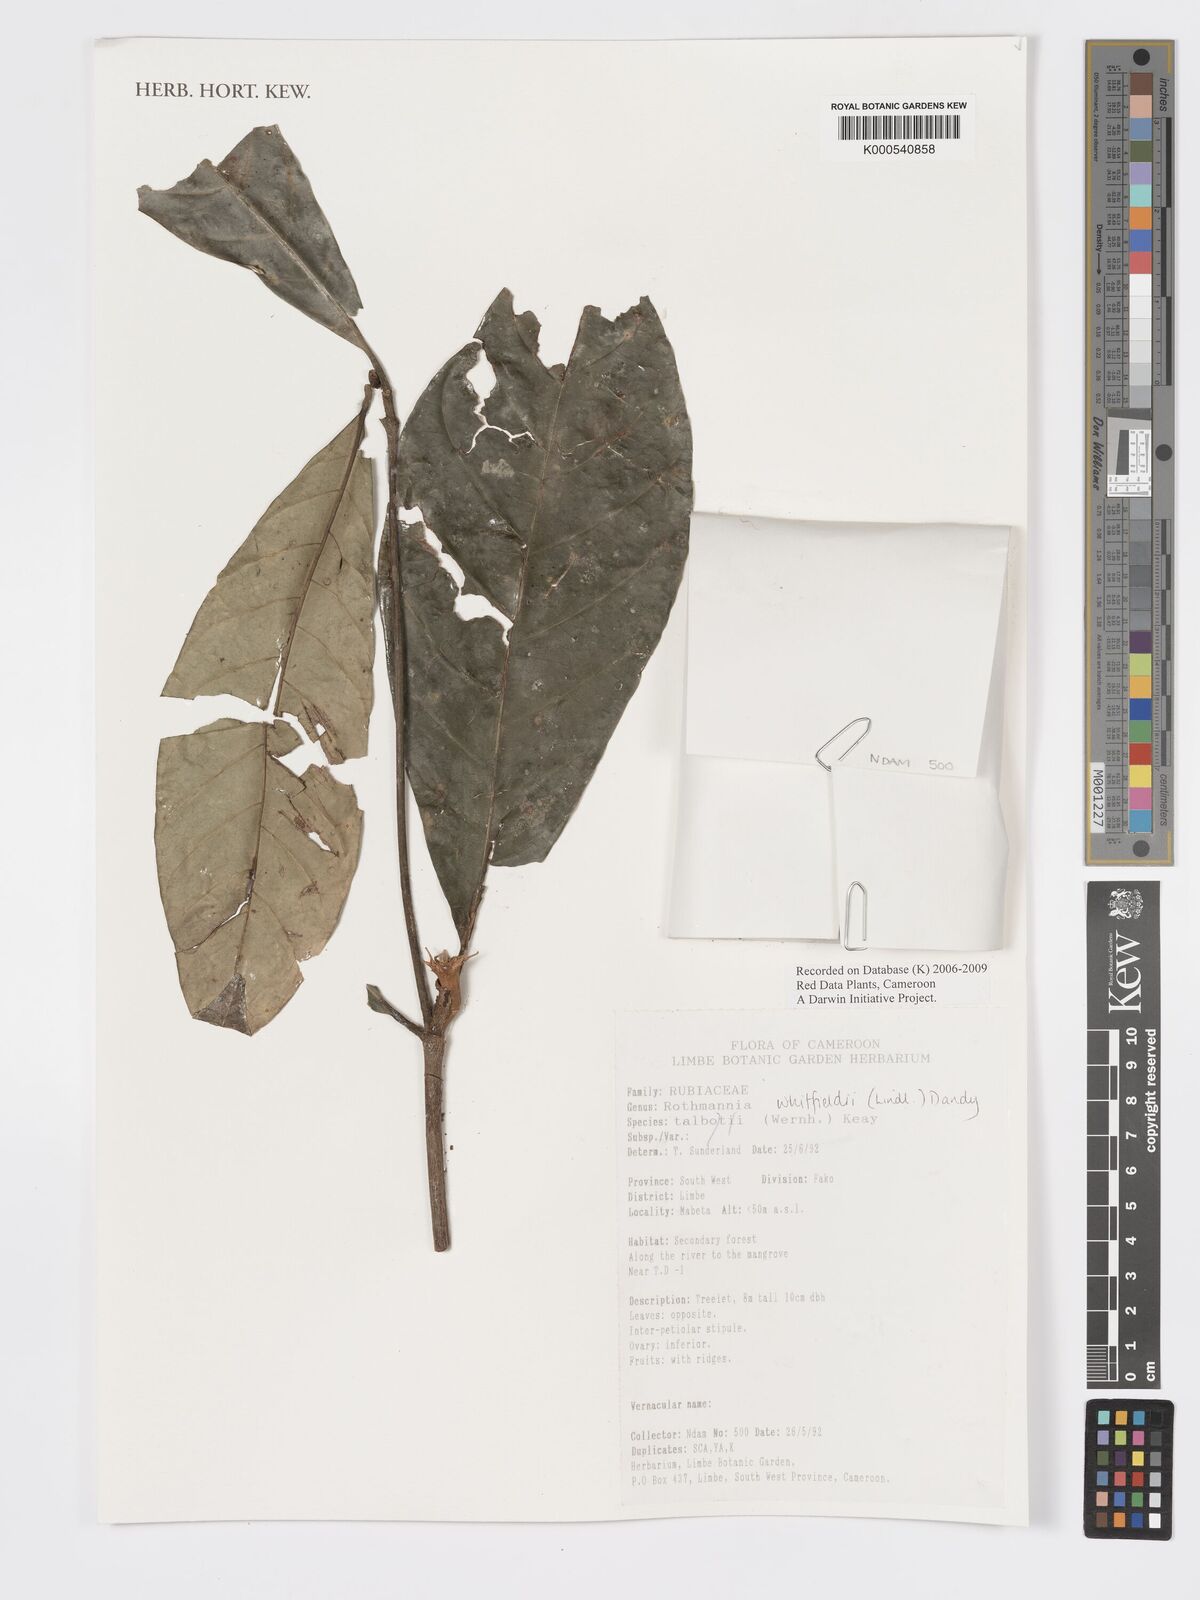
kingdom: Plantae
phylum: Tracheophyta
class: Magnoliopsida
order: Gentianales
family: Rubiaceae
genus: Rothmannia
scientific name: Rothmannia whitfieldii
